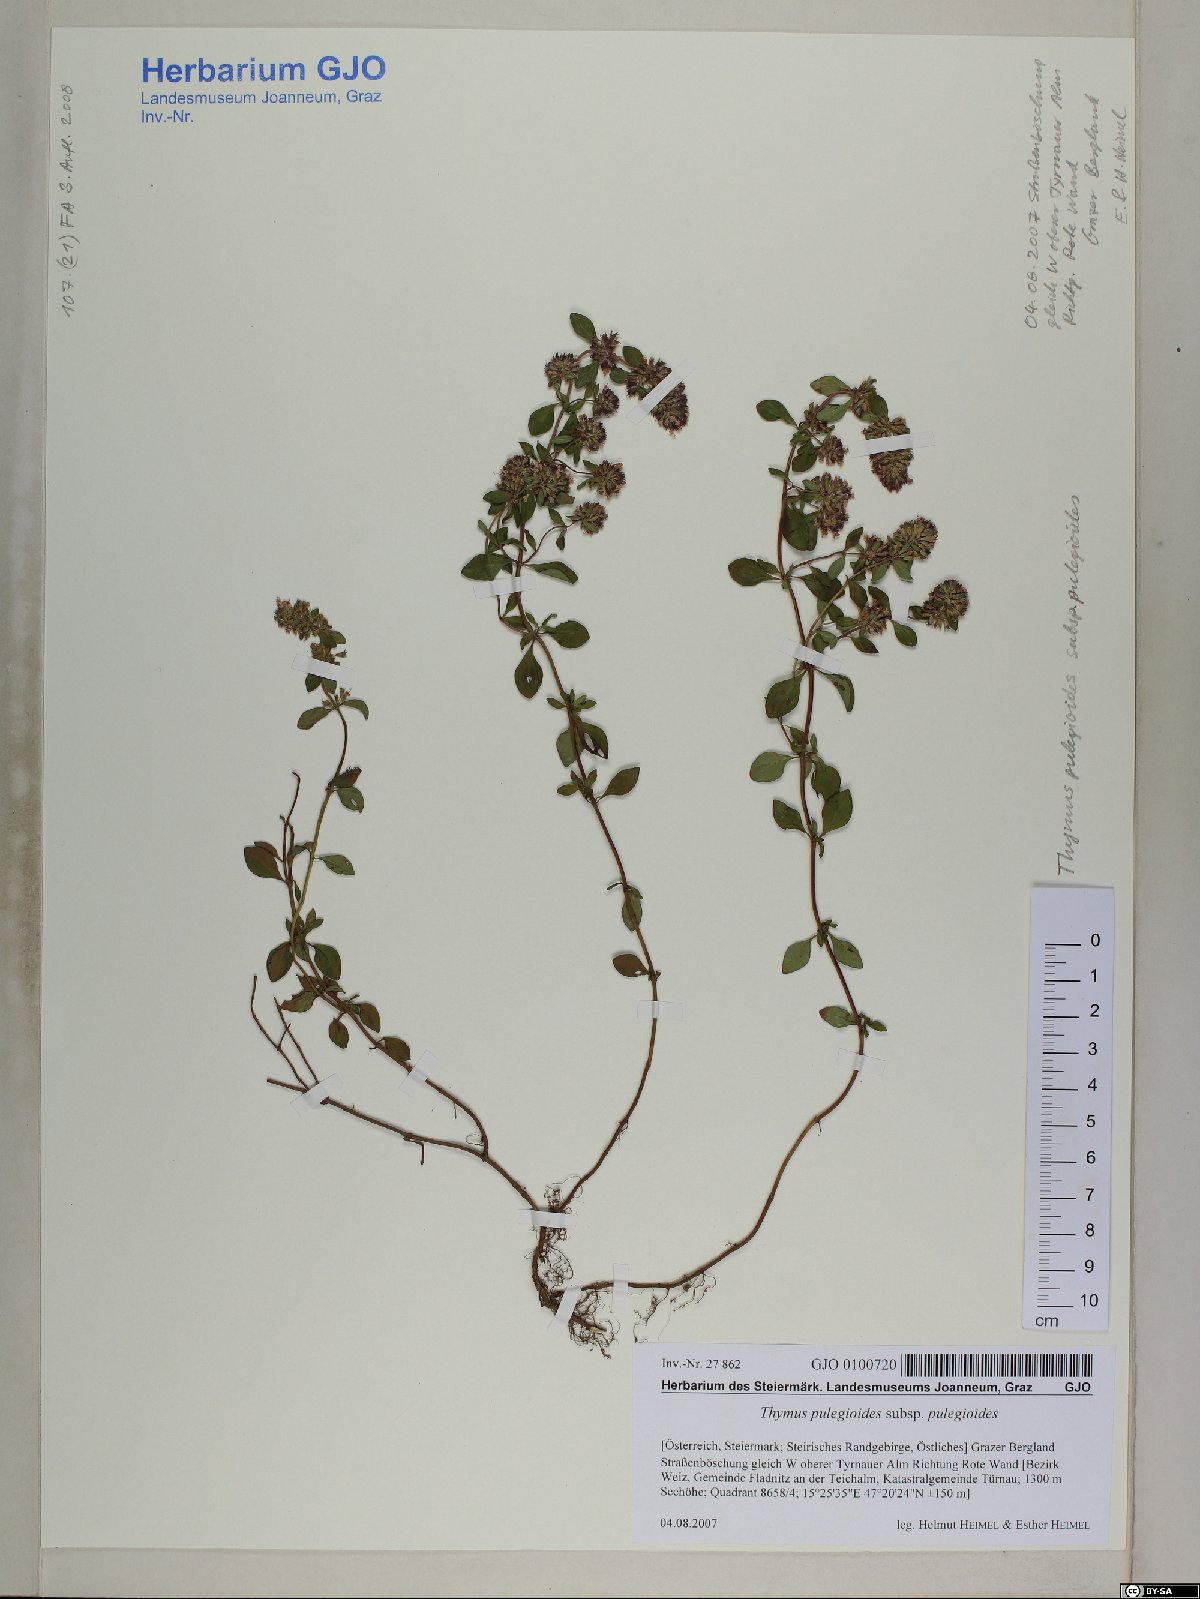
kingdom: Plantae
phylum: Tracheophyta
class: Magnoliopsida
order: Lamiales
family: Lamiaceae
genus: Thymus
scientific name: Thymus pulegioides
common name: Large thyme
